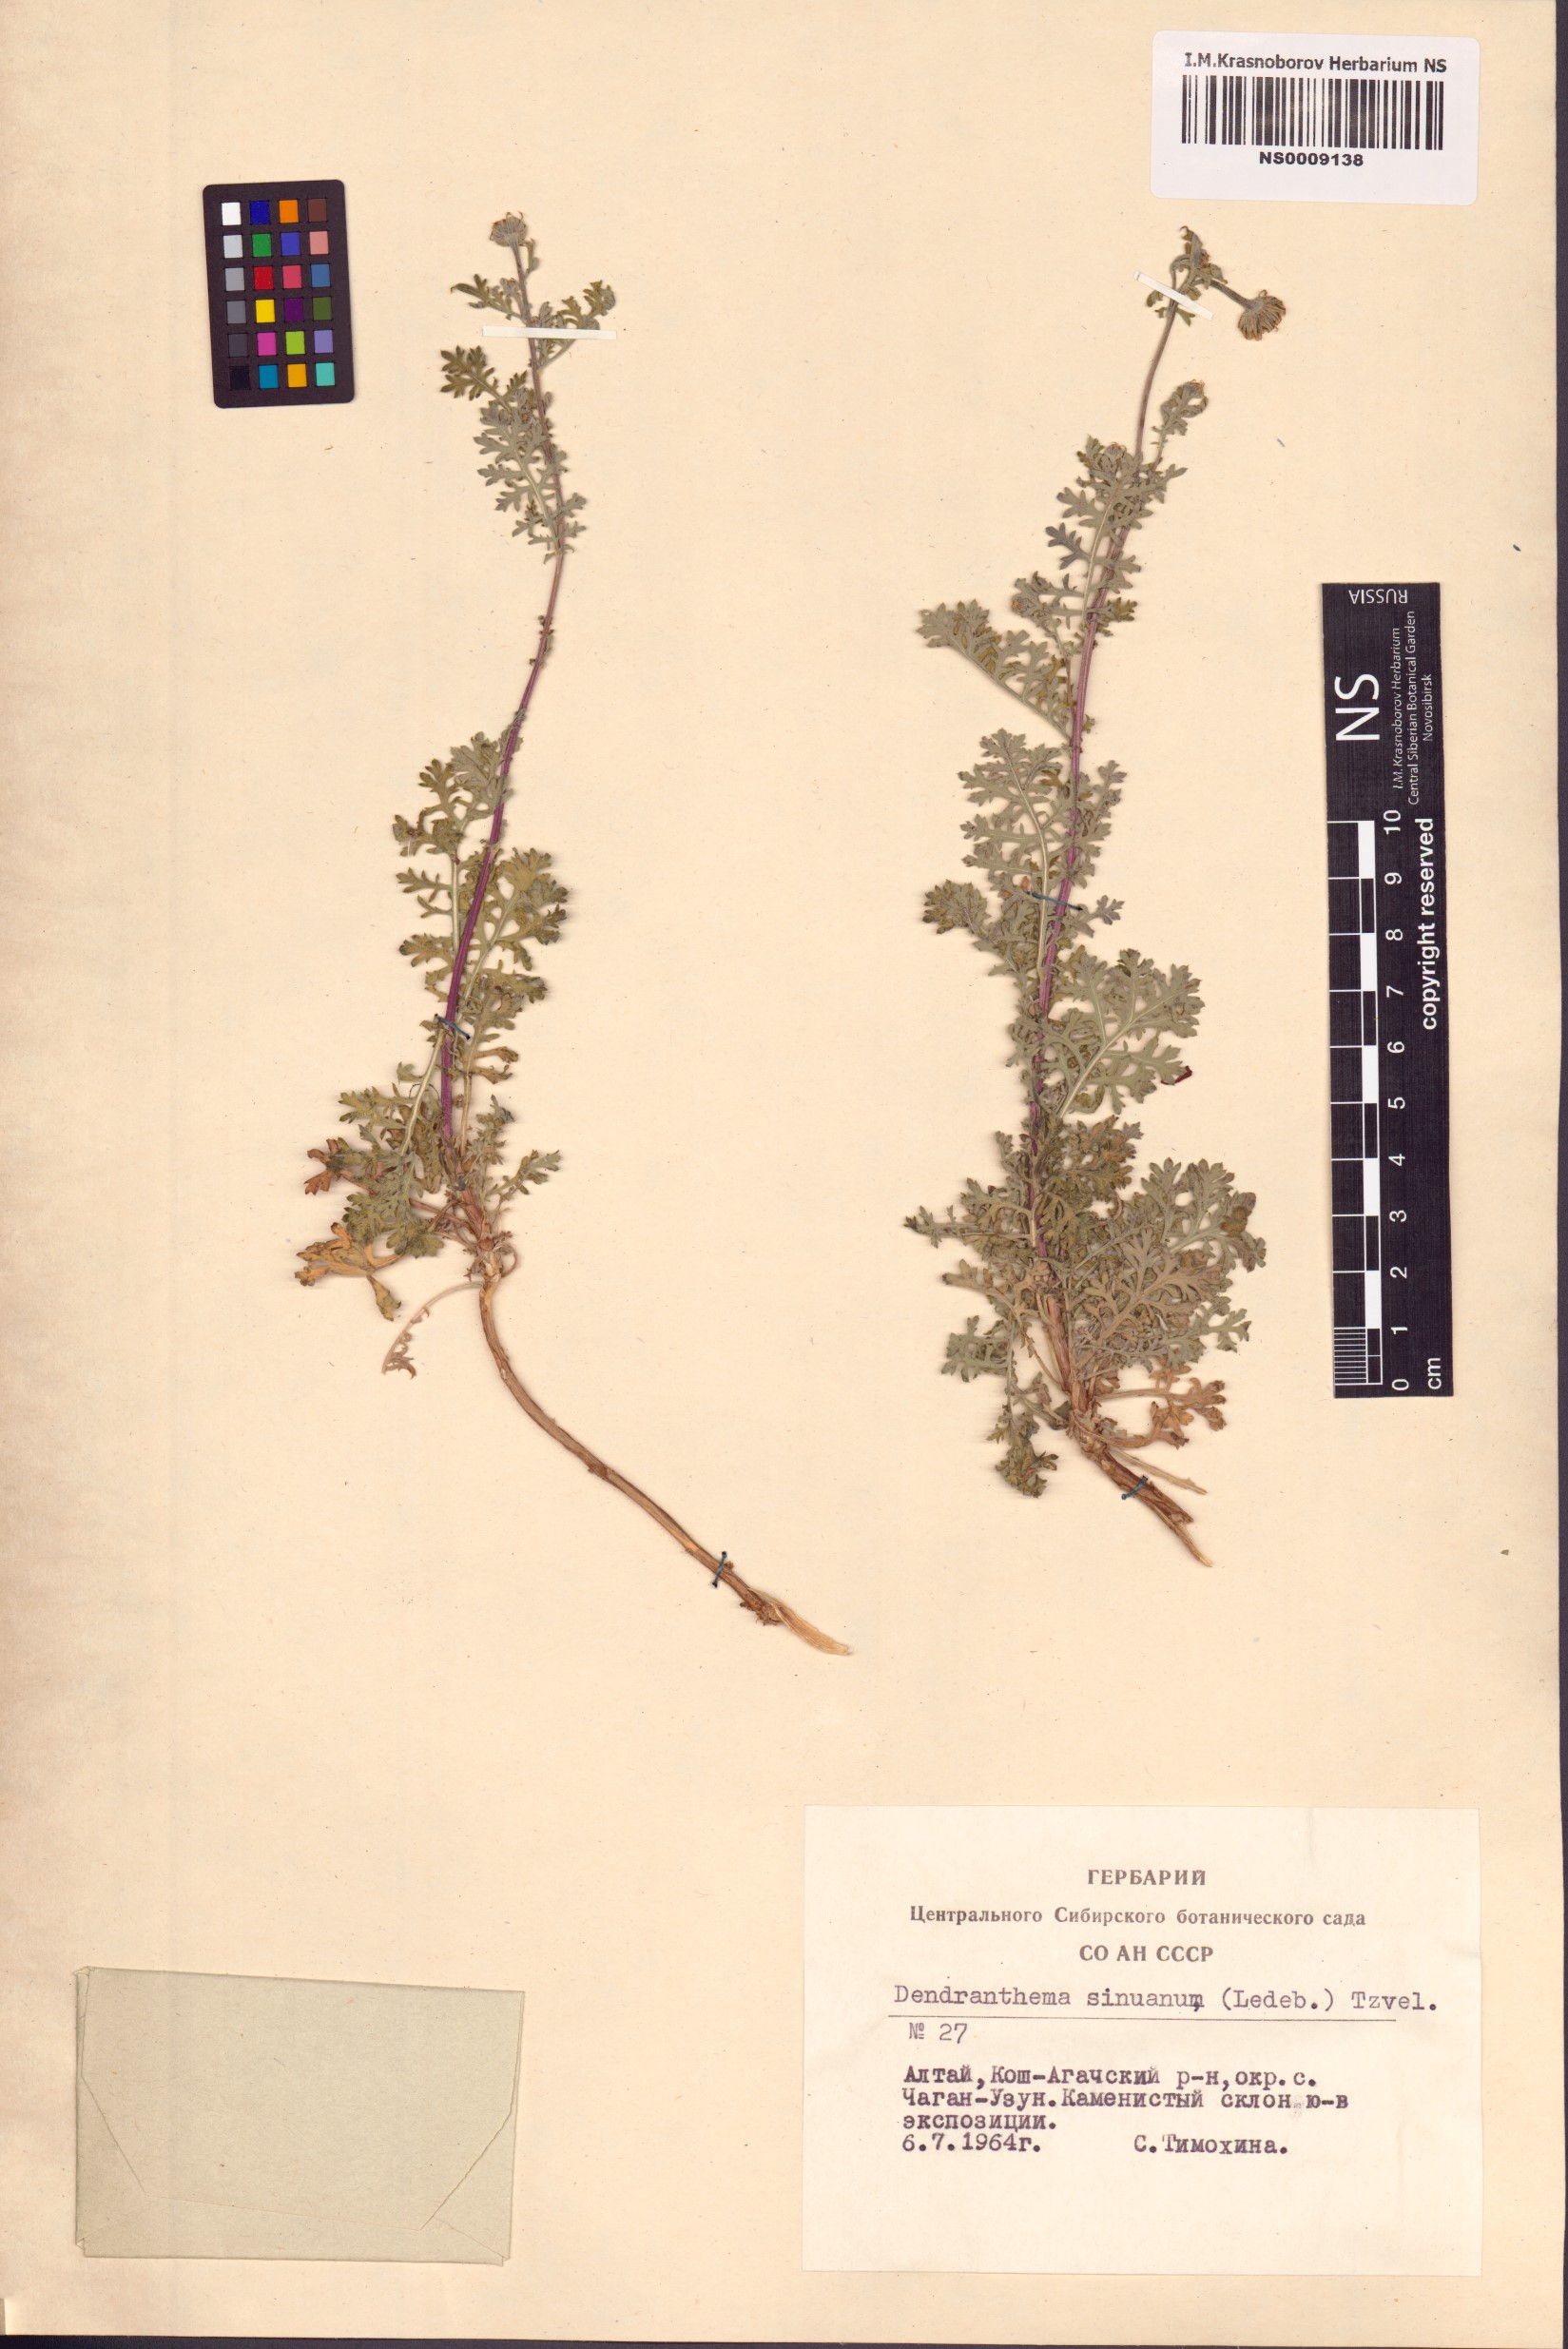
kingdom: Plantae
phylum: Tracheophyta
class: Magnoliopsida
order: Asterales
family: Asteraceae
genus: Chrysanthemum
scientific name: Chrysanthemum sinuatum
